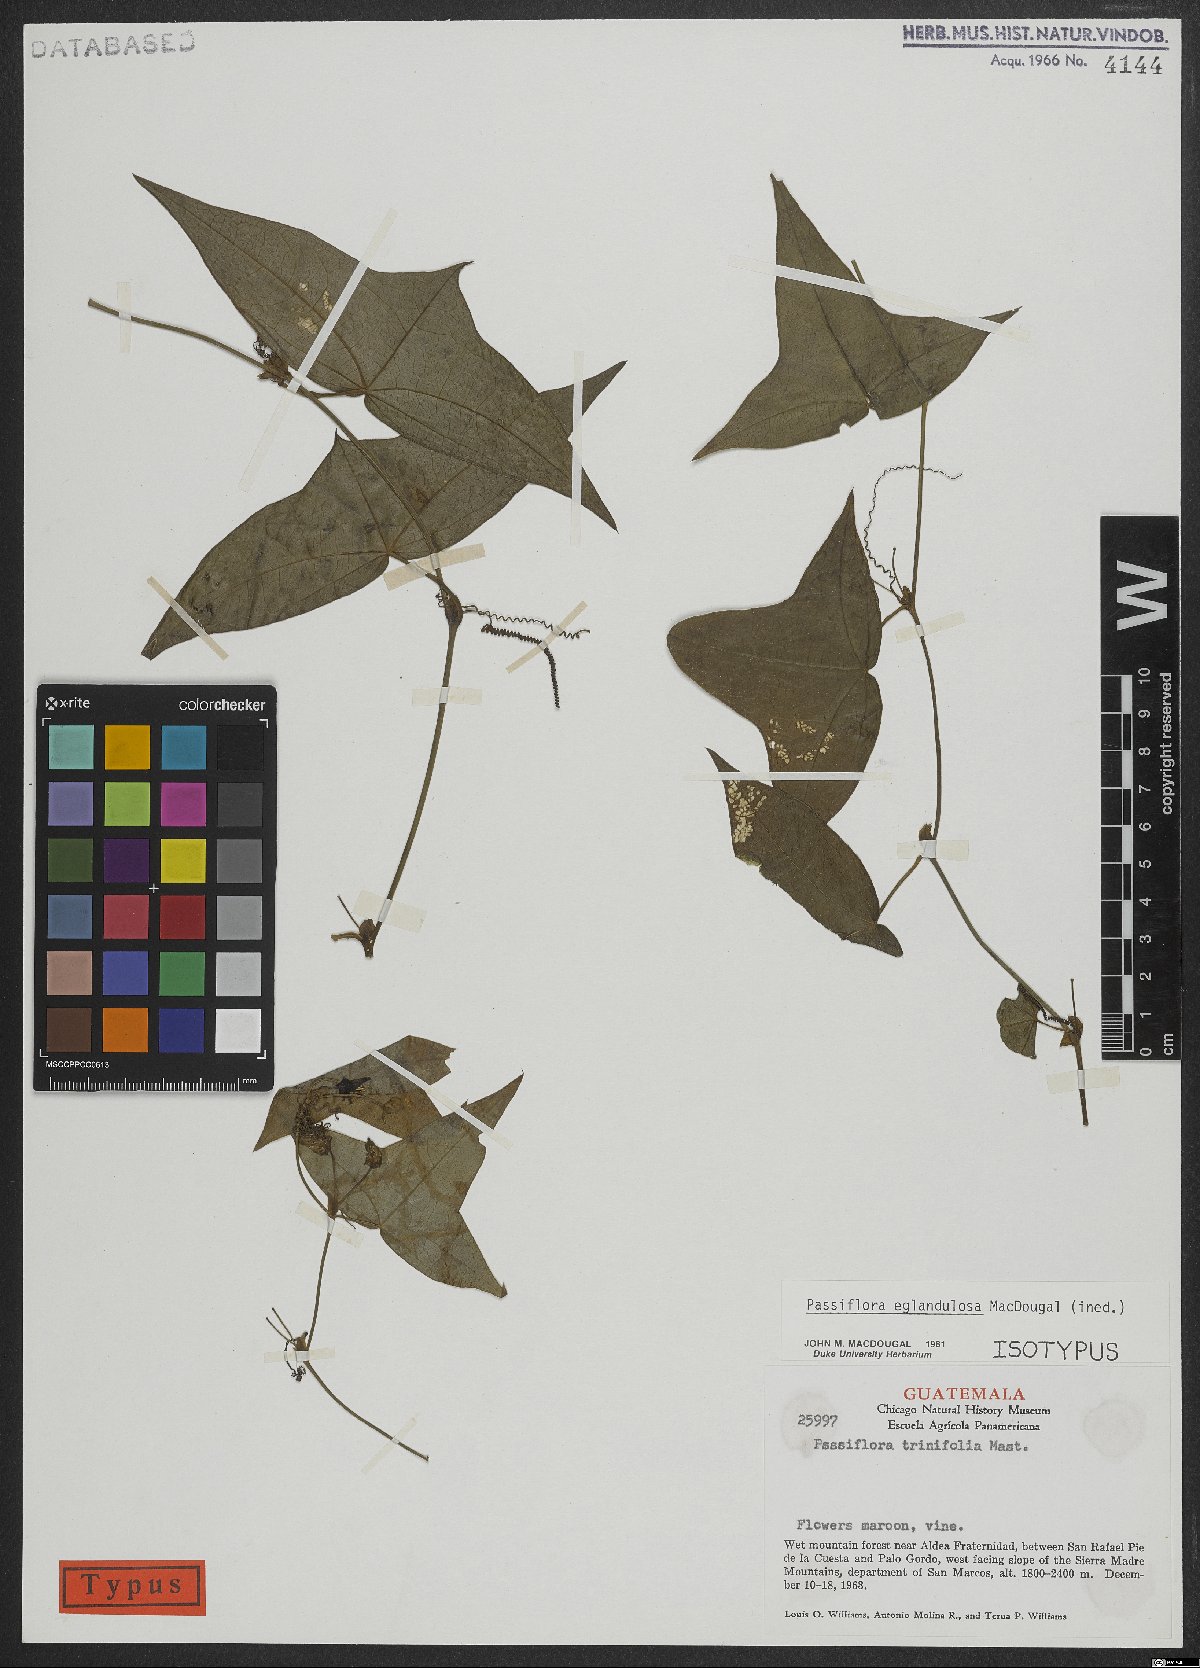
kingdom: Plantae
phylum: Tracheophyta
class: Magnoliopsida
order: Malpighiales
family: Passifloraceae
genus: Passiflora
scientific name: Passiflora eglandulosa
